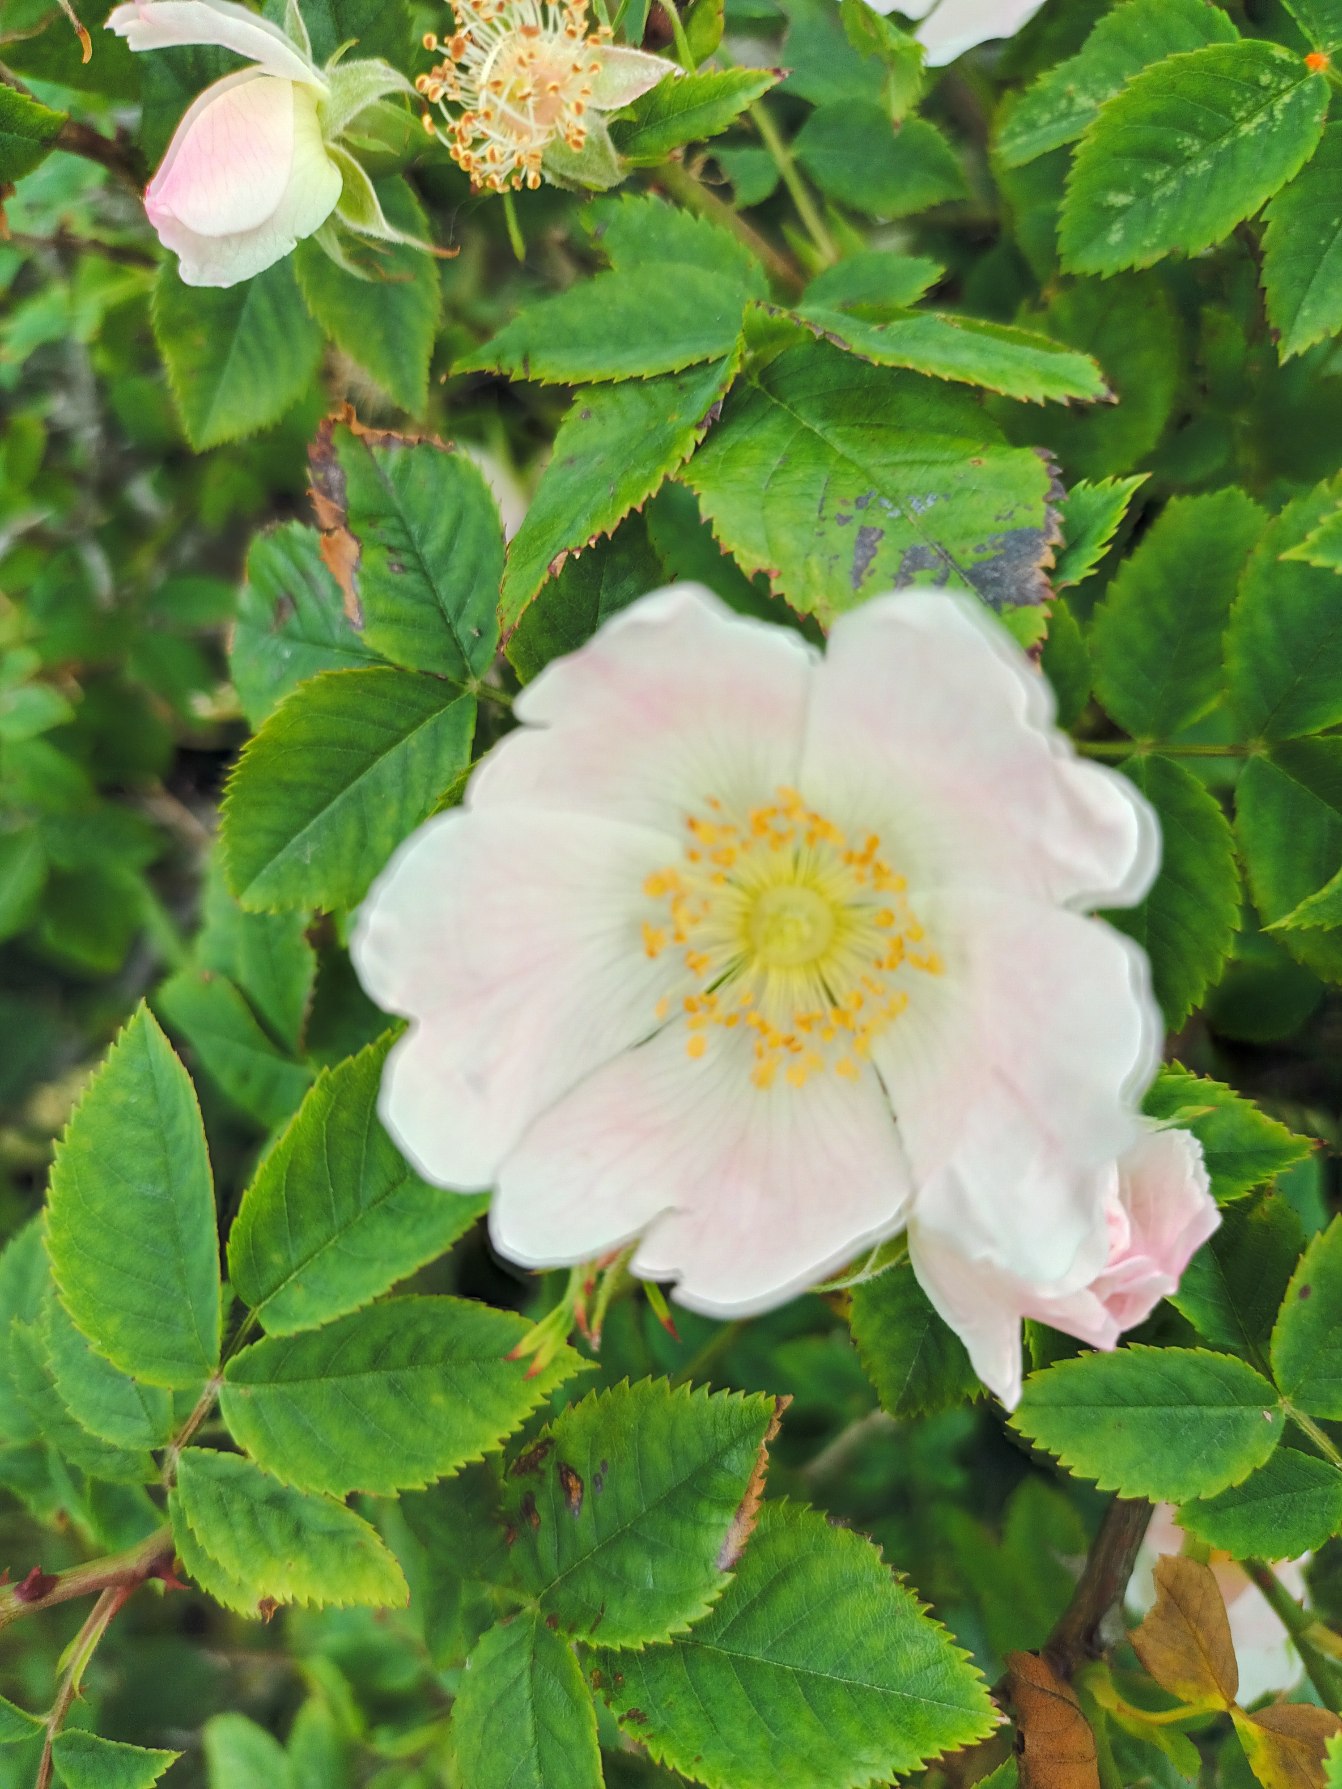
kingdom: Plantae
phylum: Tracheophyta
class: Magnoliopsida
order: Rosales
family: Rosaceae
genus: Rosa
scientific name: Rosa canina
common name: Glat hunde-rose
